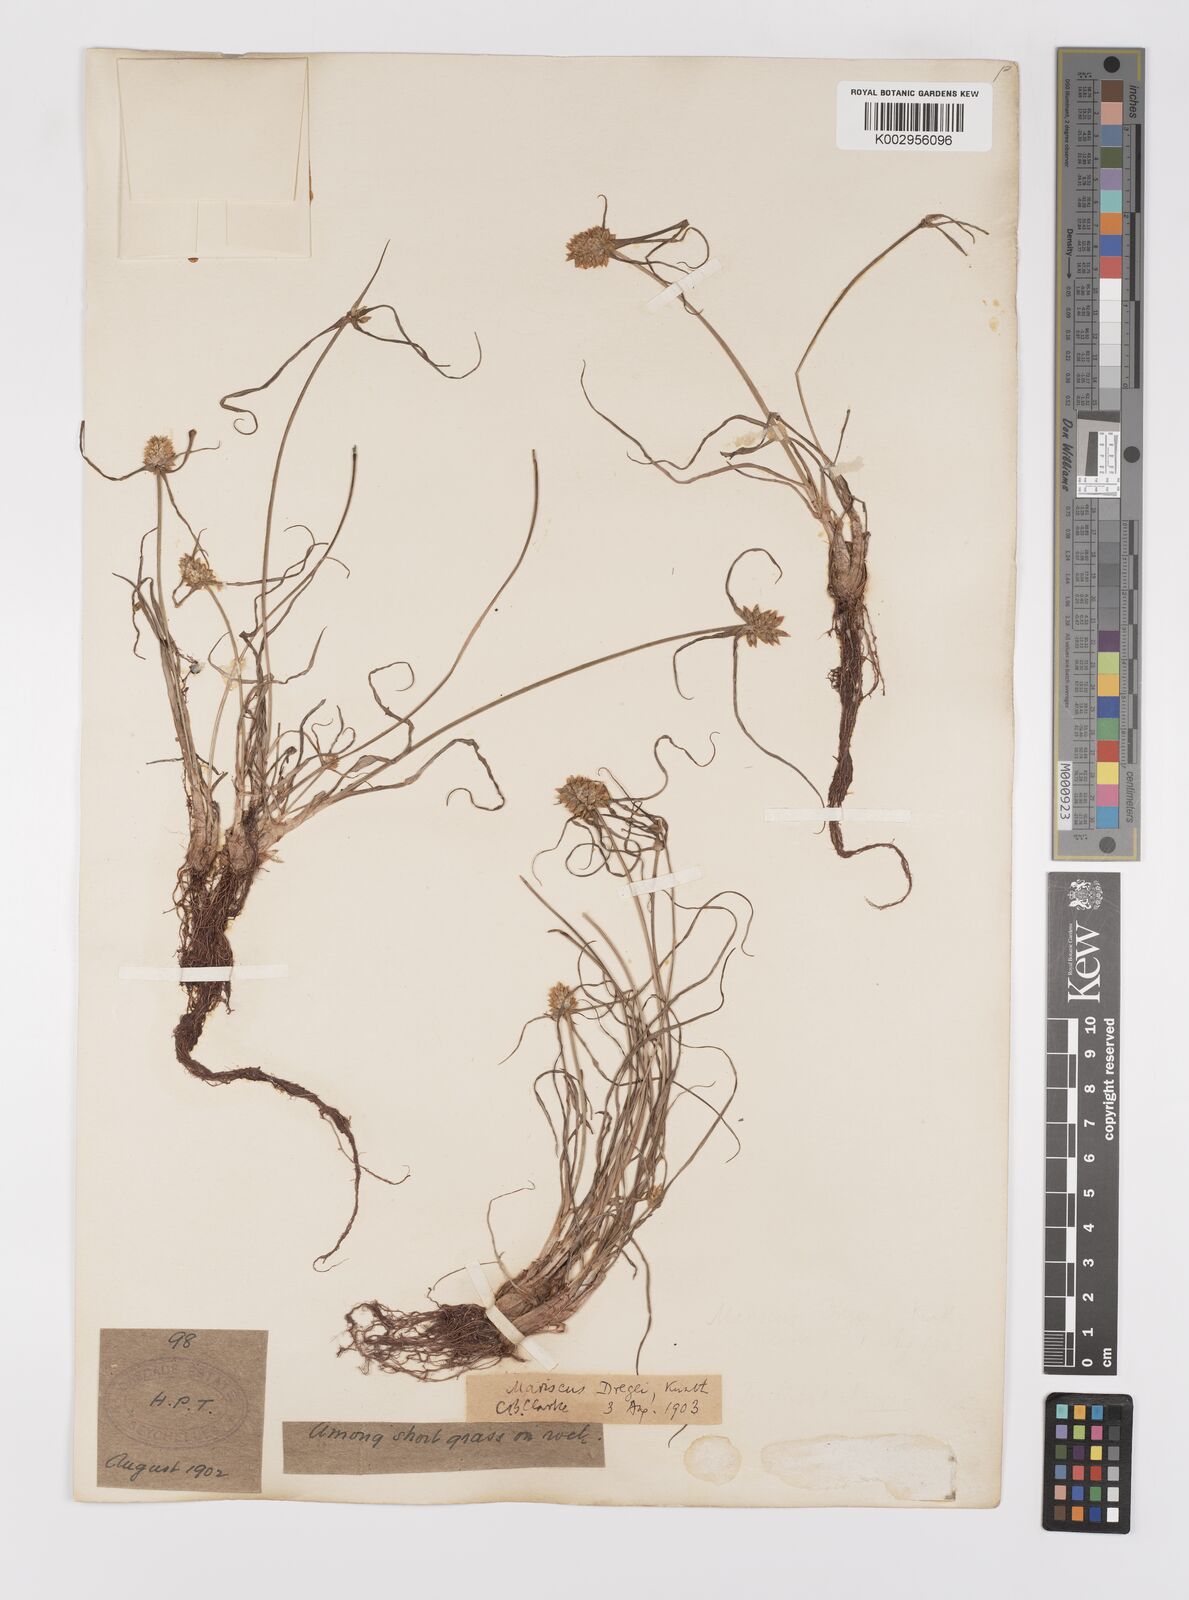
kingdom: Plantae
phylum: Tracheophyta
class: Liliopsida
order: Poales
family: Cyperaceae
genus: Cyperus
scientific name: Cyperus dubius
